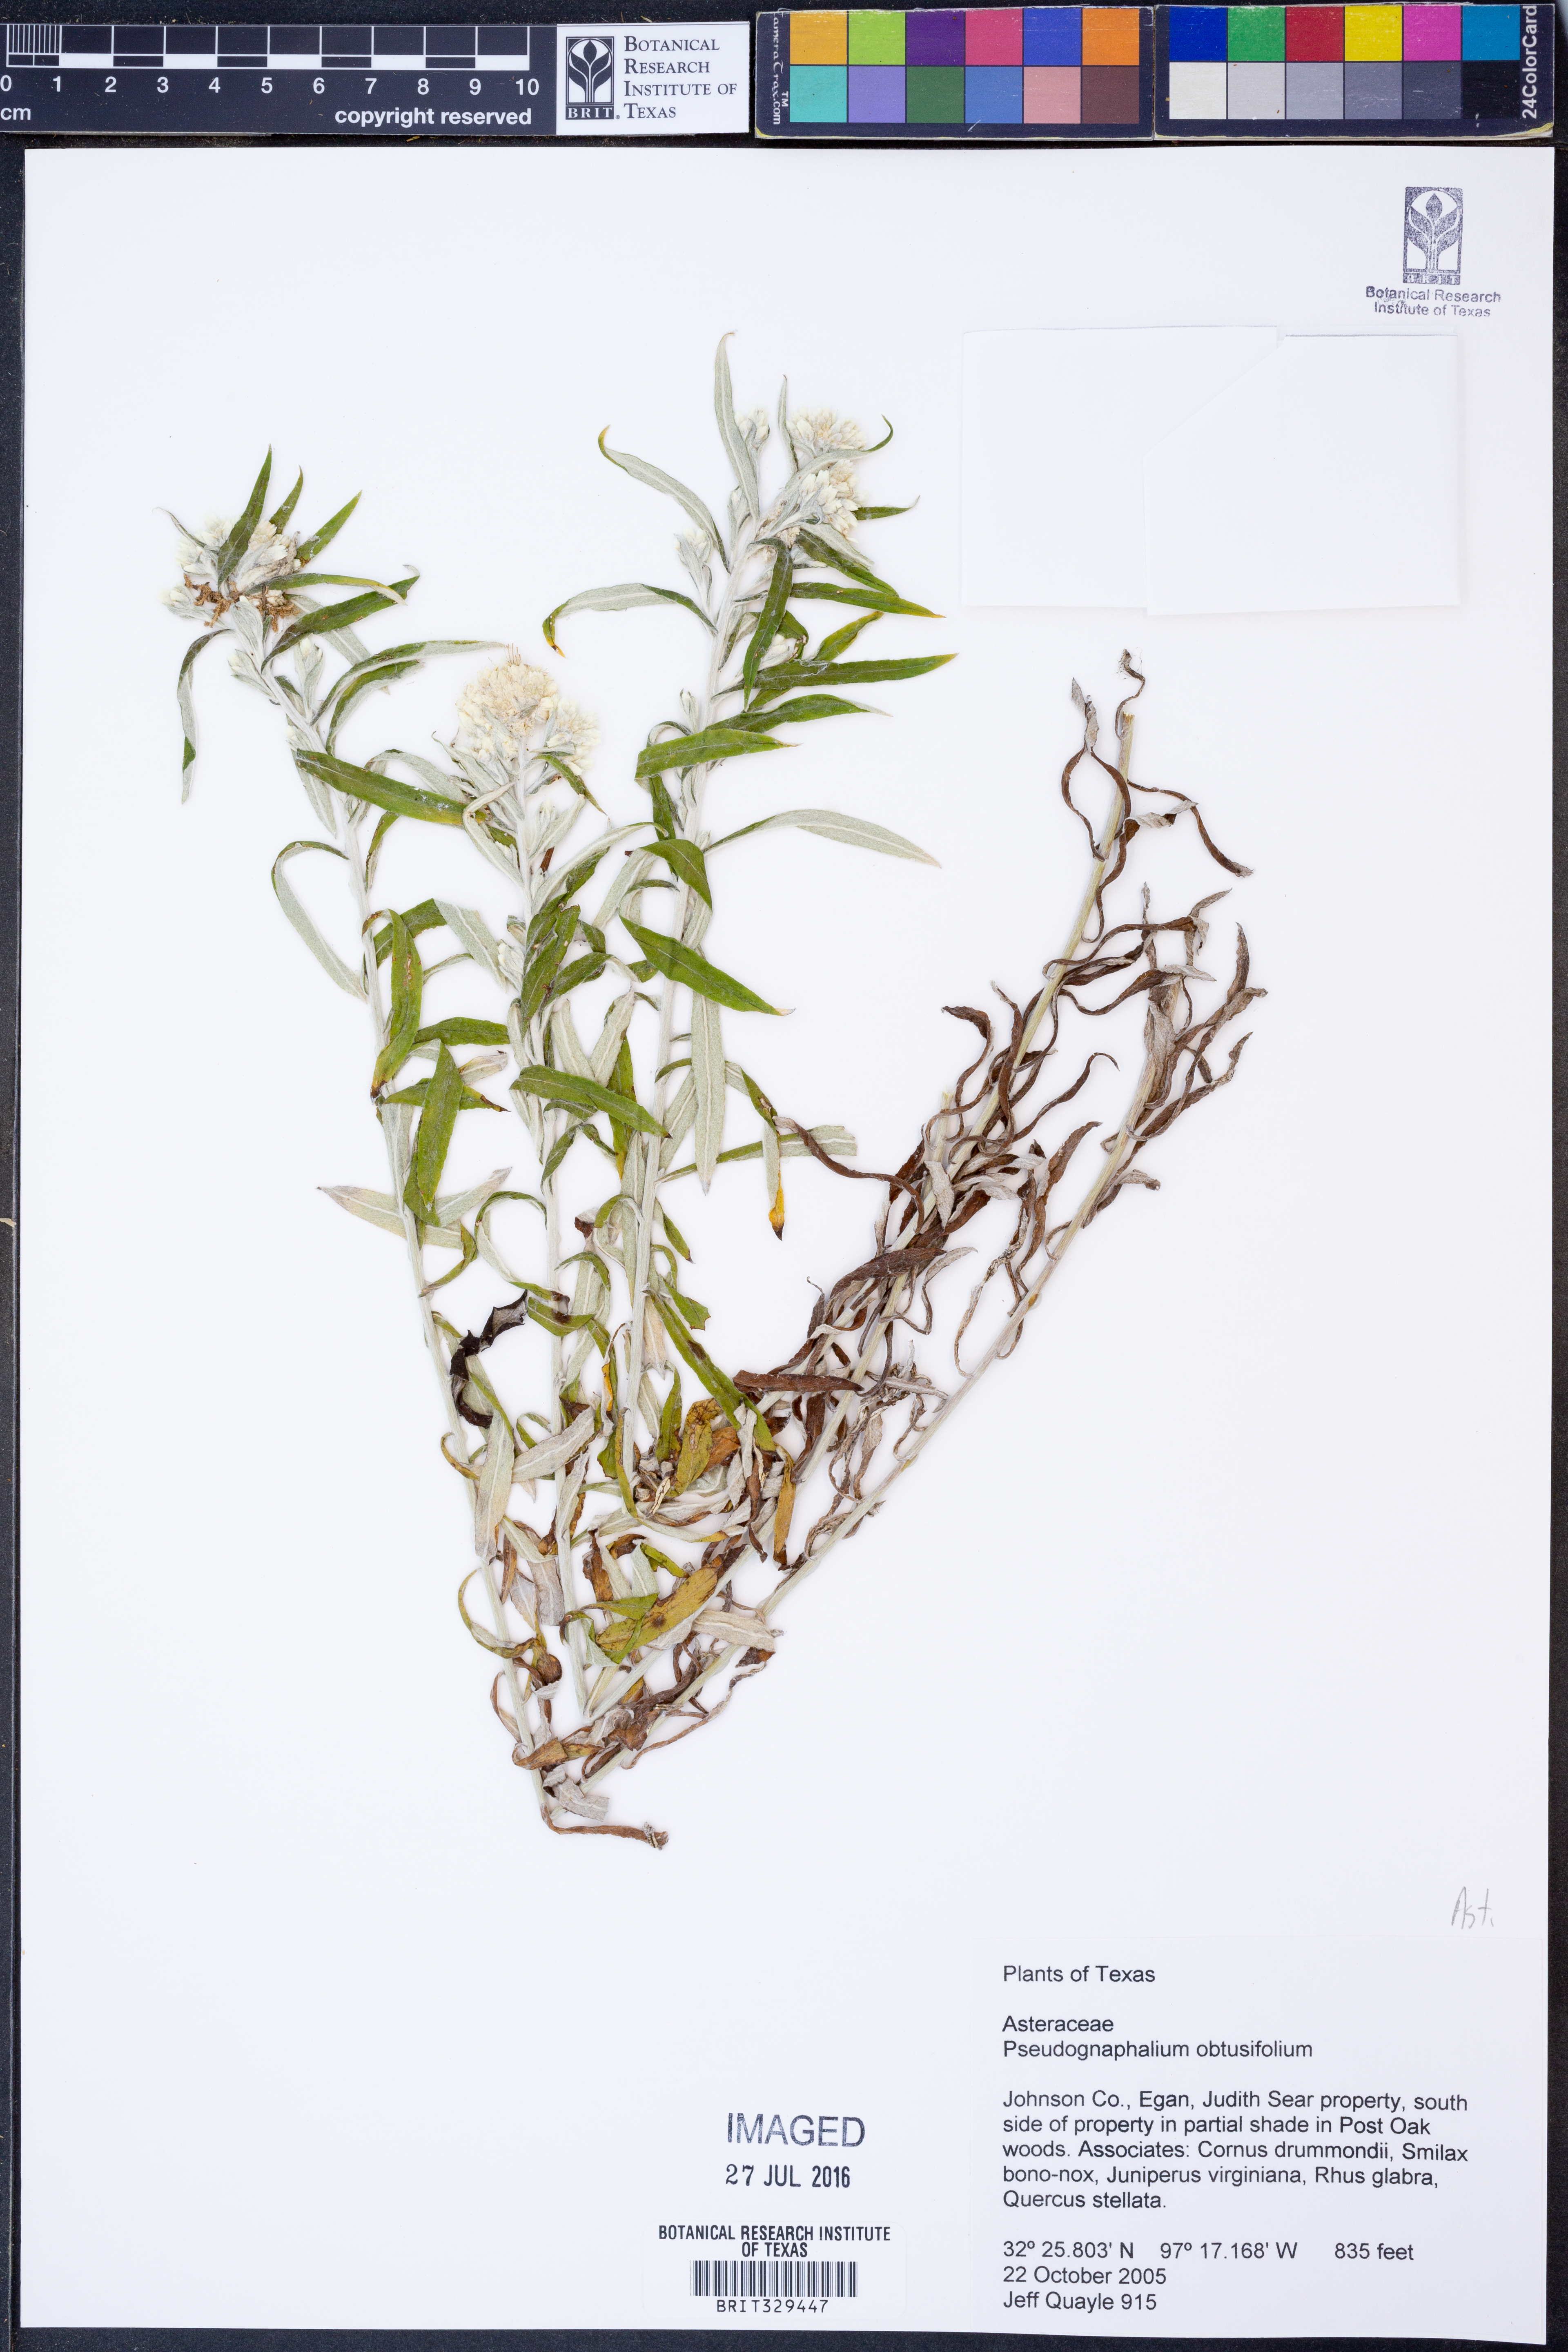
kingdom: Plantae
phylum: Tracheophyta
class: Magnoliopsida
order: Asterales
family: Asteraceae
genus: Pseudognaphalium
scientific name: Pseudognaphalium obtusifolium
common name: Eastern rabbit-tobacco
